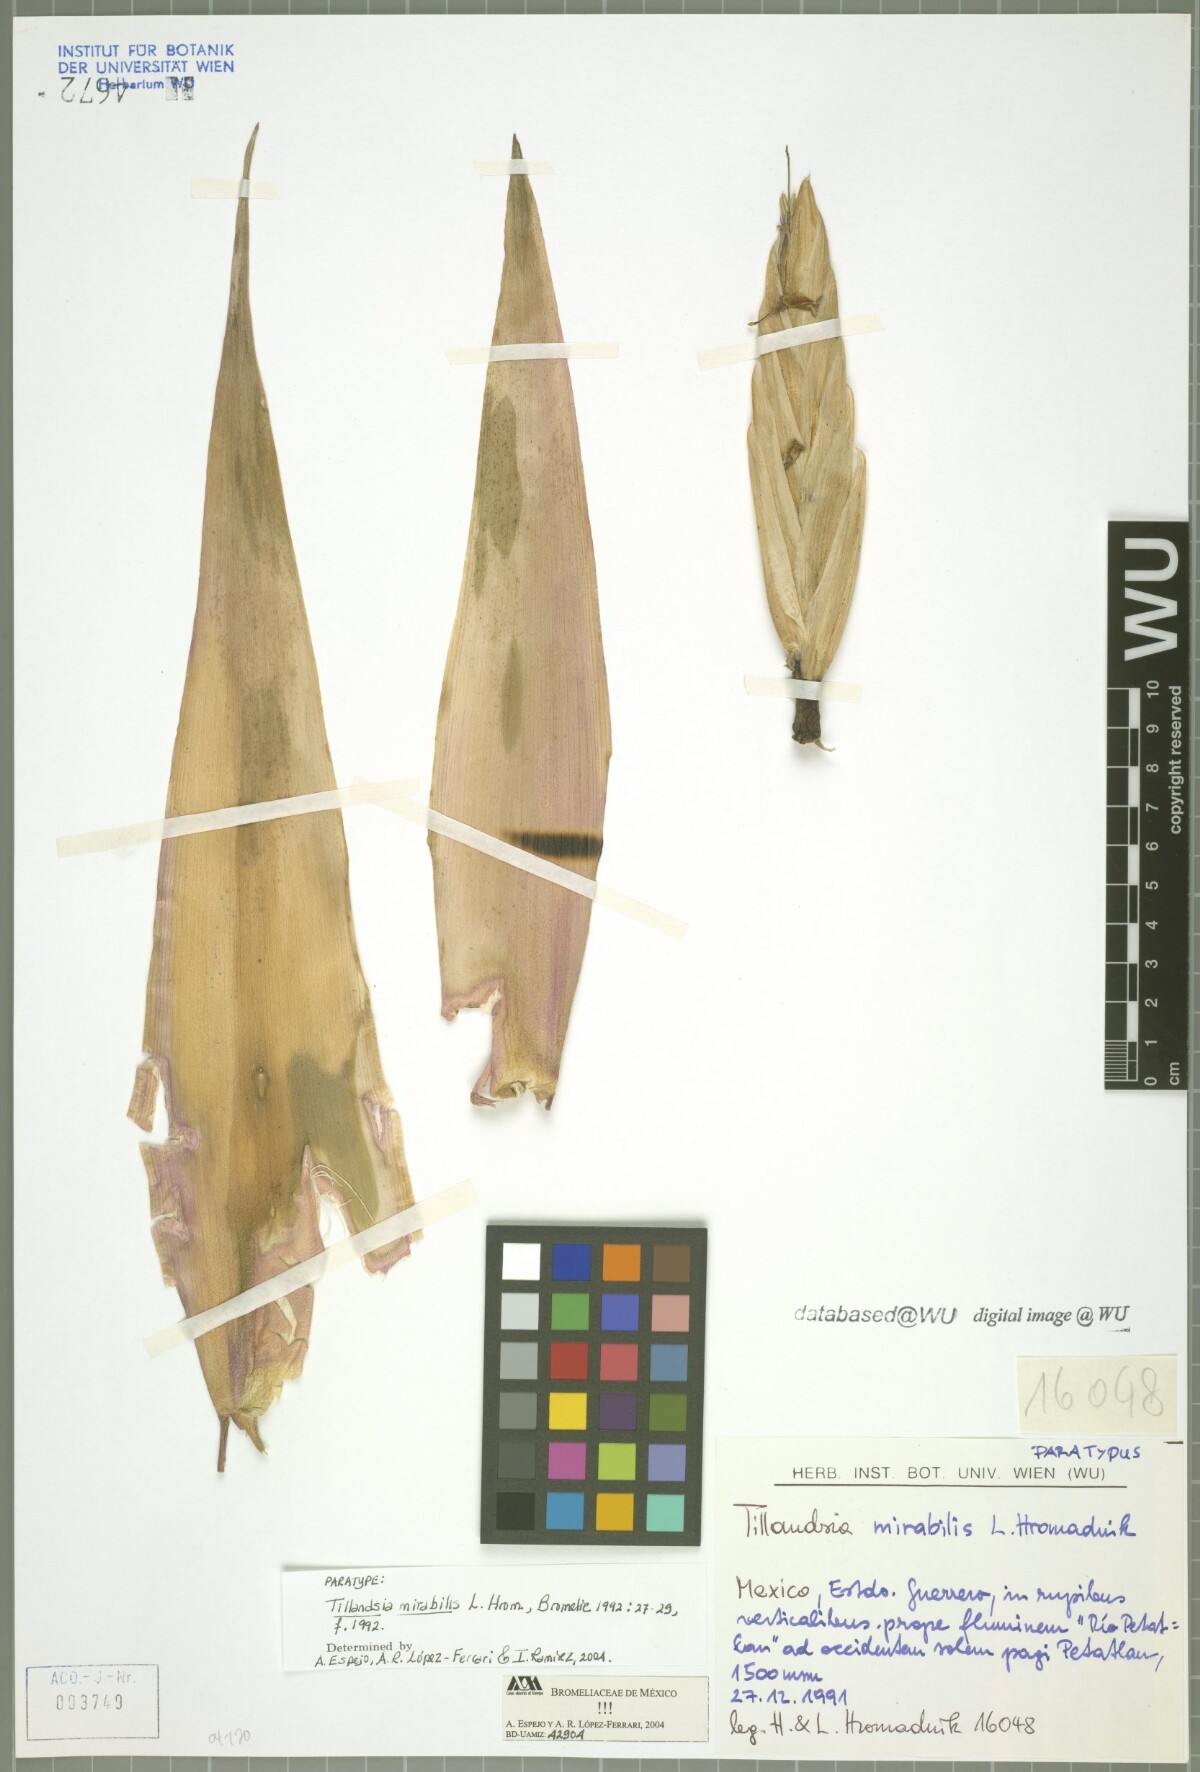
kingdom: Plantae
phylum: Tracheophyta
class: Liliopsida
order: Poales
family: Bromeliaceae
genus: Tillandsia
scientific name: Tillandsia mirabilis
